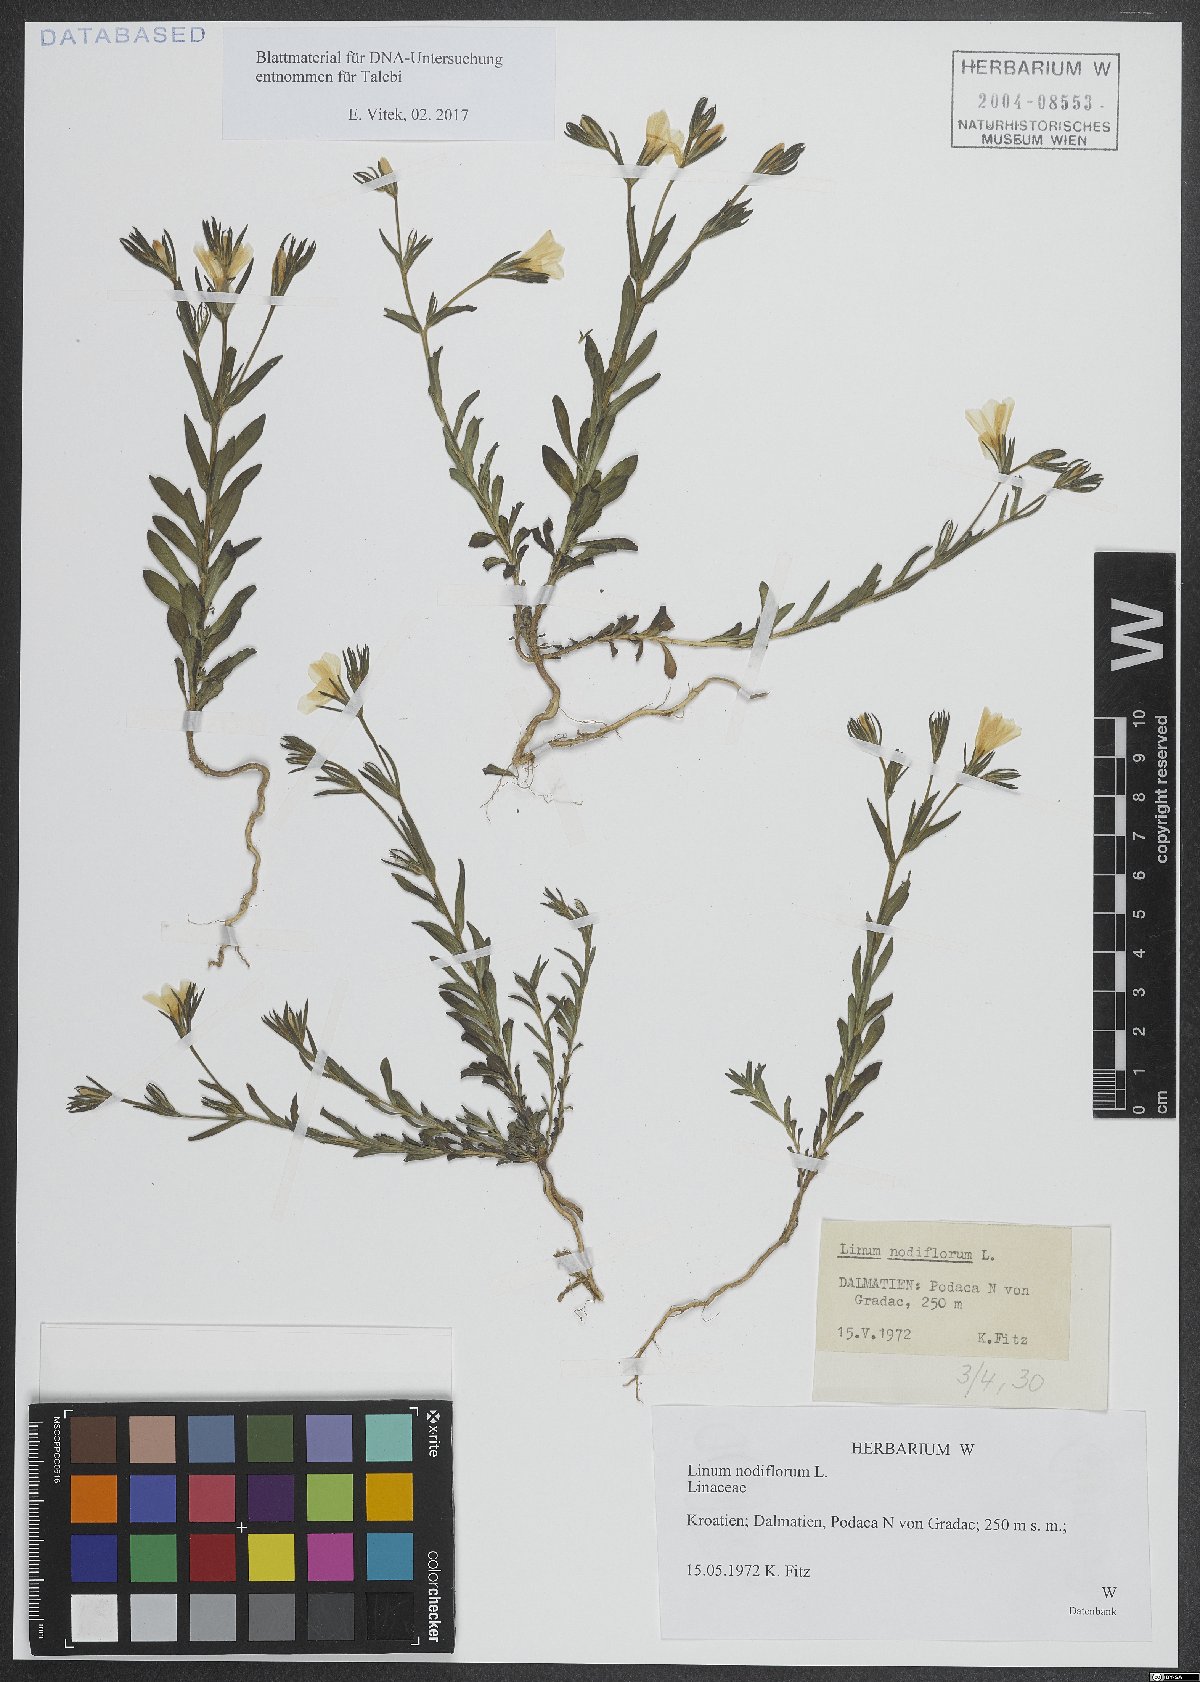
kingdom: Plantae
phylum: Tracheophyta
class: Magnoliopsida
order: Malpighiales
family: Linaceae
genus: Linum
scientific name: Linum nodiflorum
